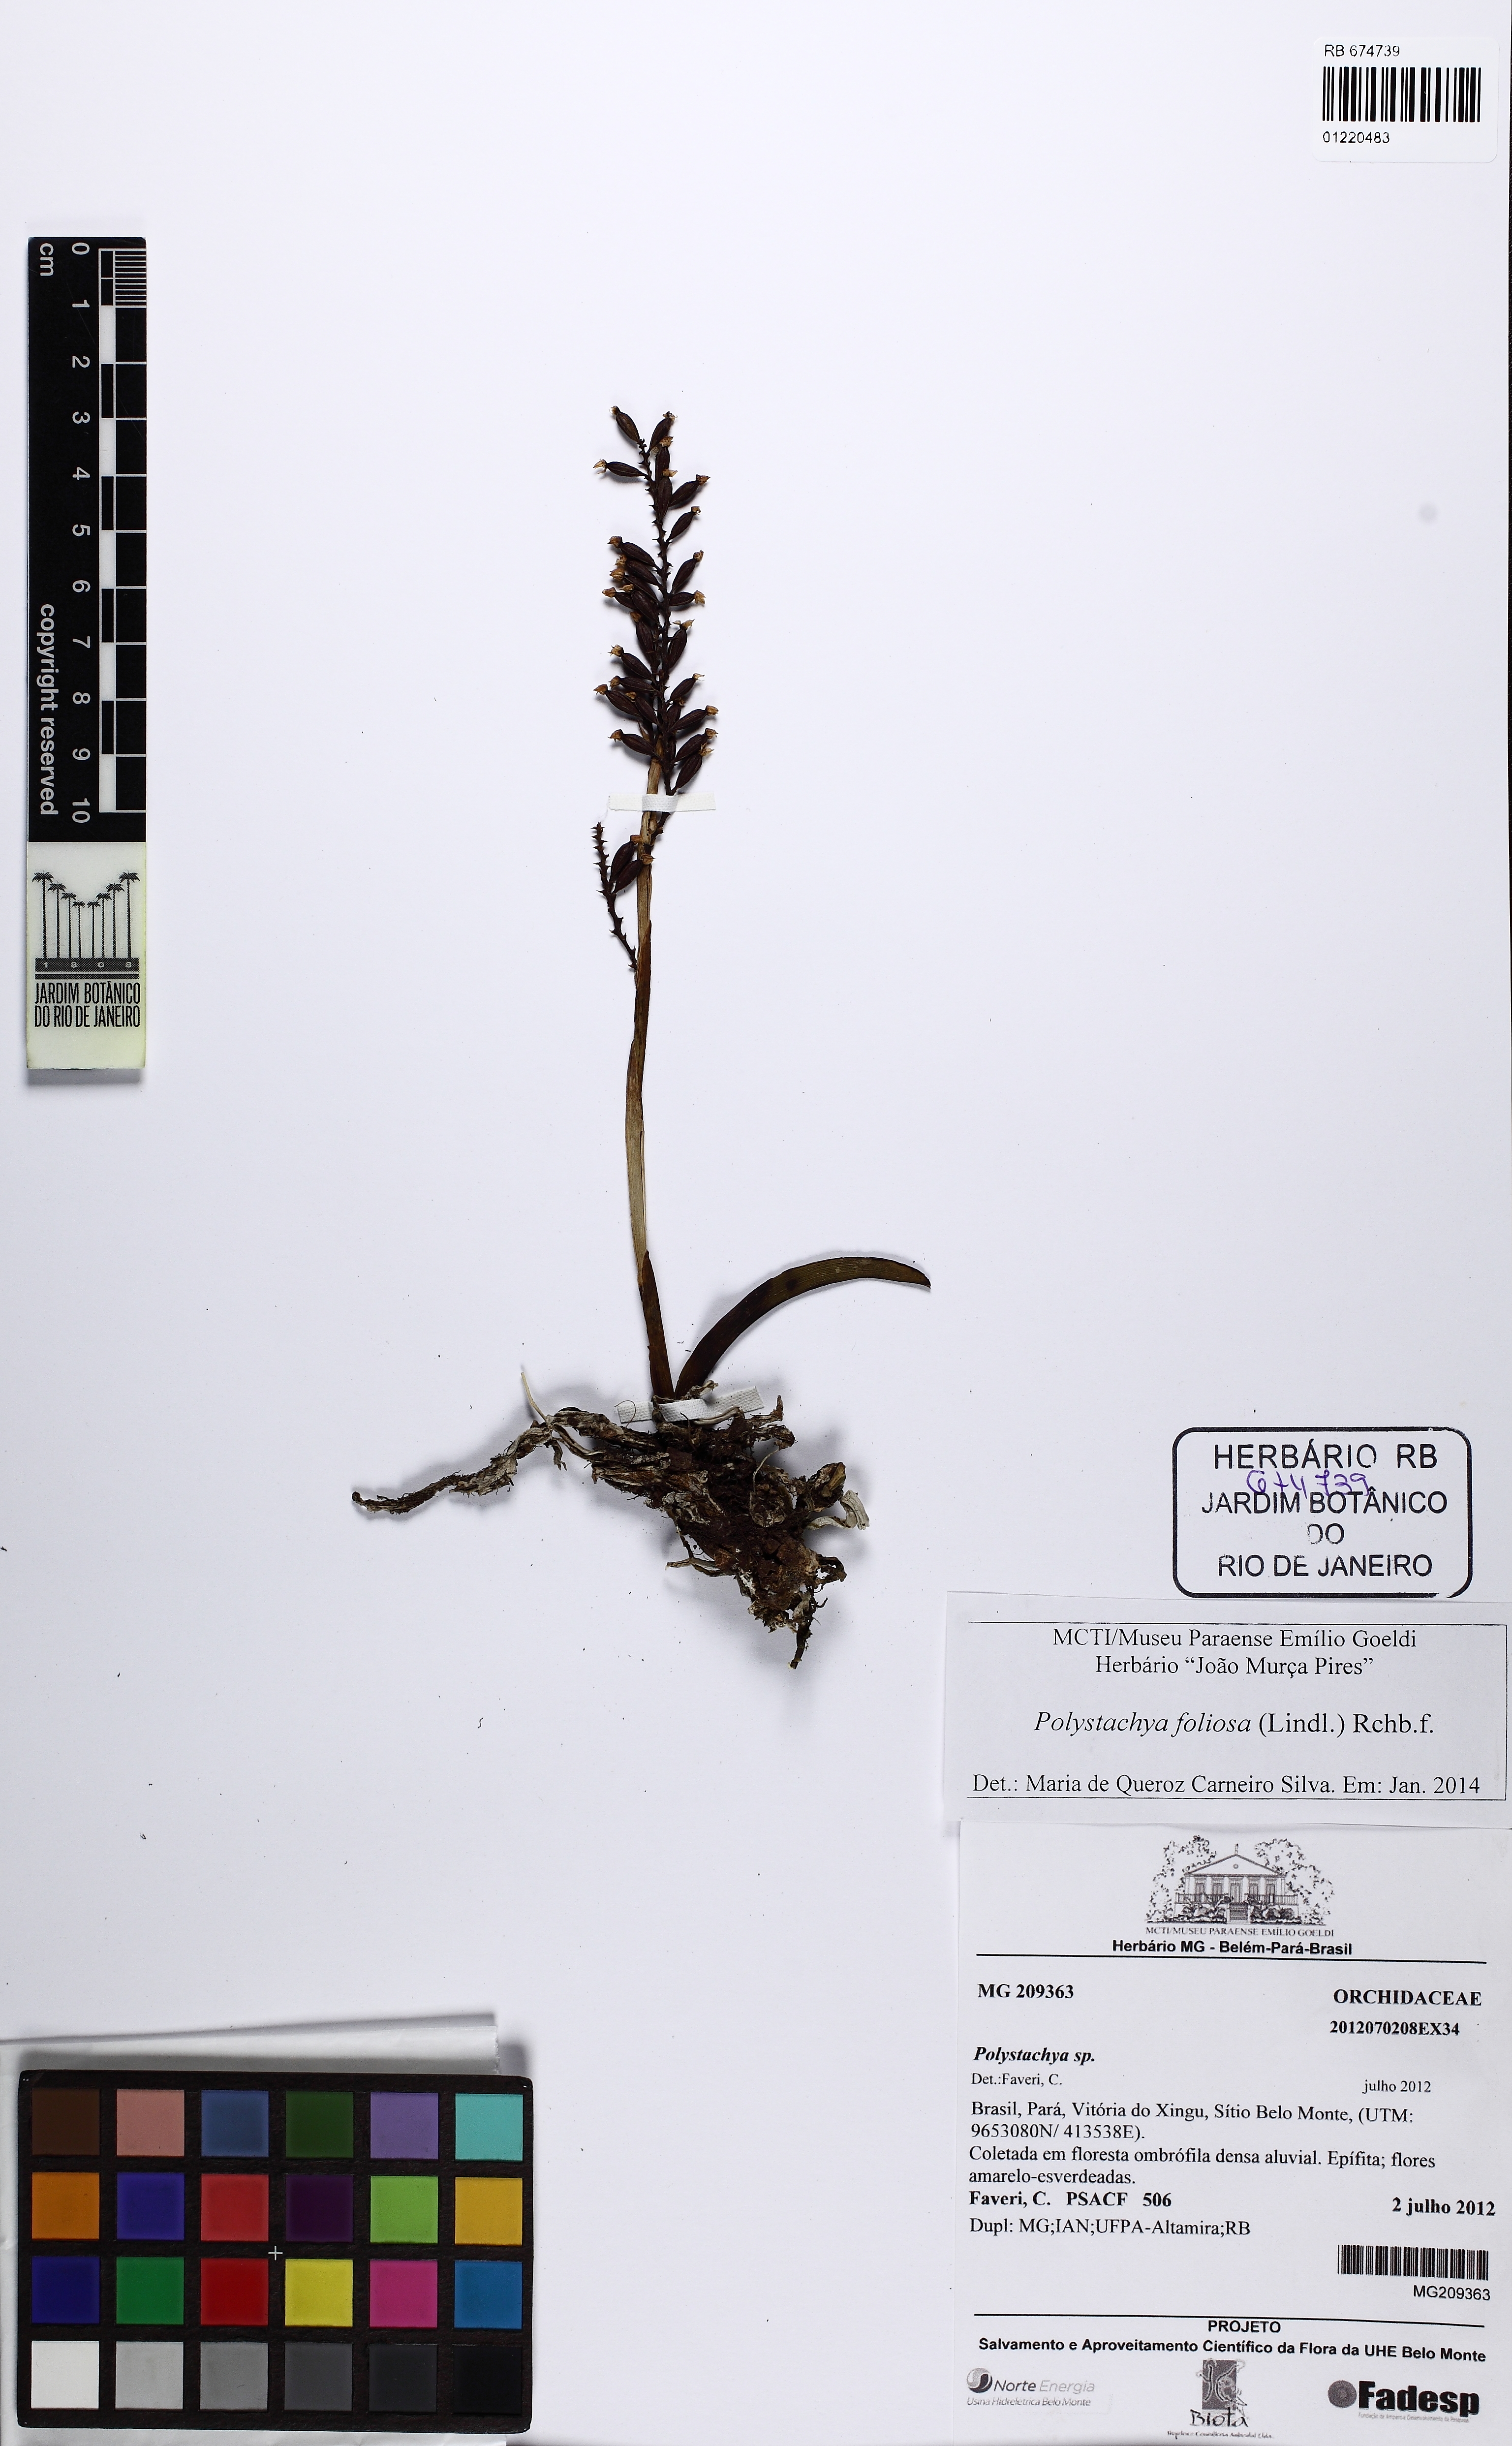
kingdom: Plantae
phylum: Tracheophyta
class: Liliopsida
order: Asparagales
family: Orchidaceae
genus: Polystachya
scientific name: Polystachya foliosa
